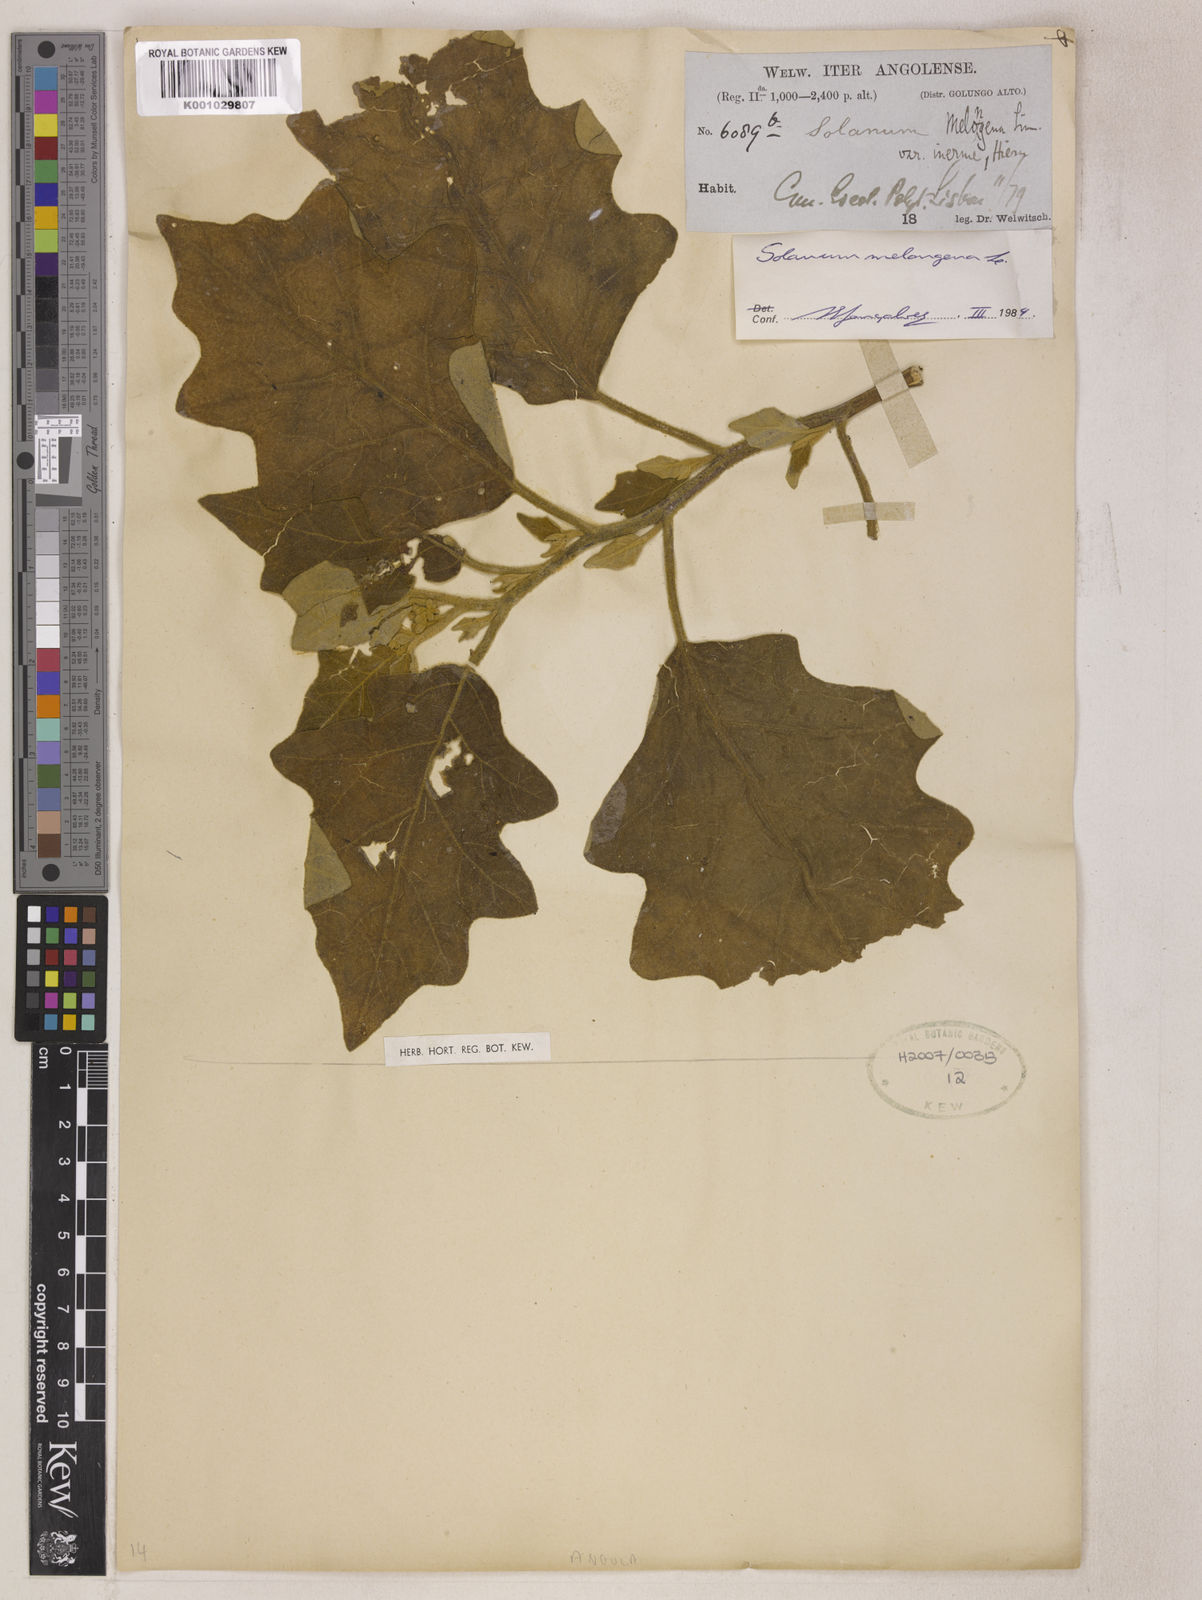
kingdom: Plantae
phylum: Tracheophyta
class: Magnoliopsida
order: Solanales
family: Solanaceae
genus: Solanum
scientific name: Solanum melongena
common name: Eggplant
